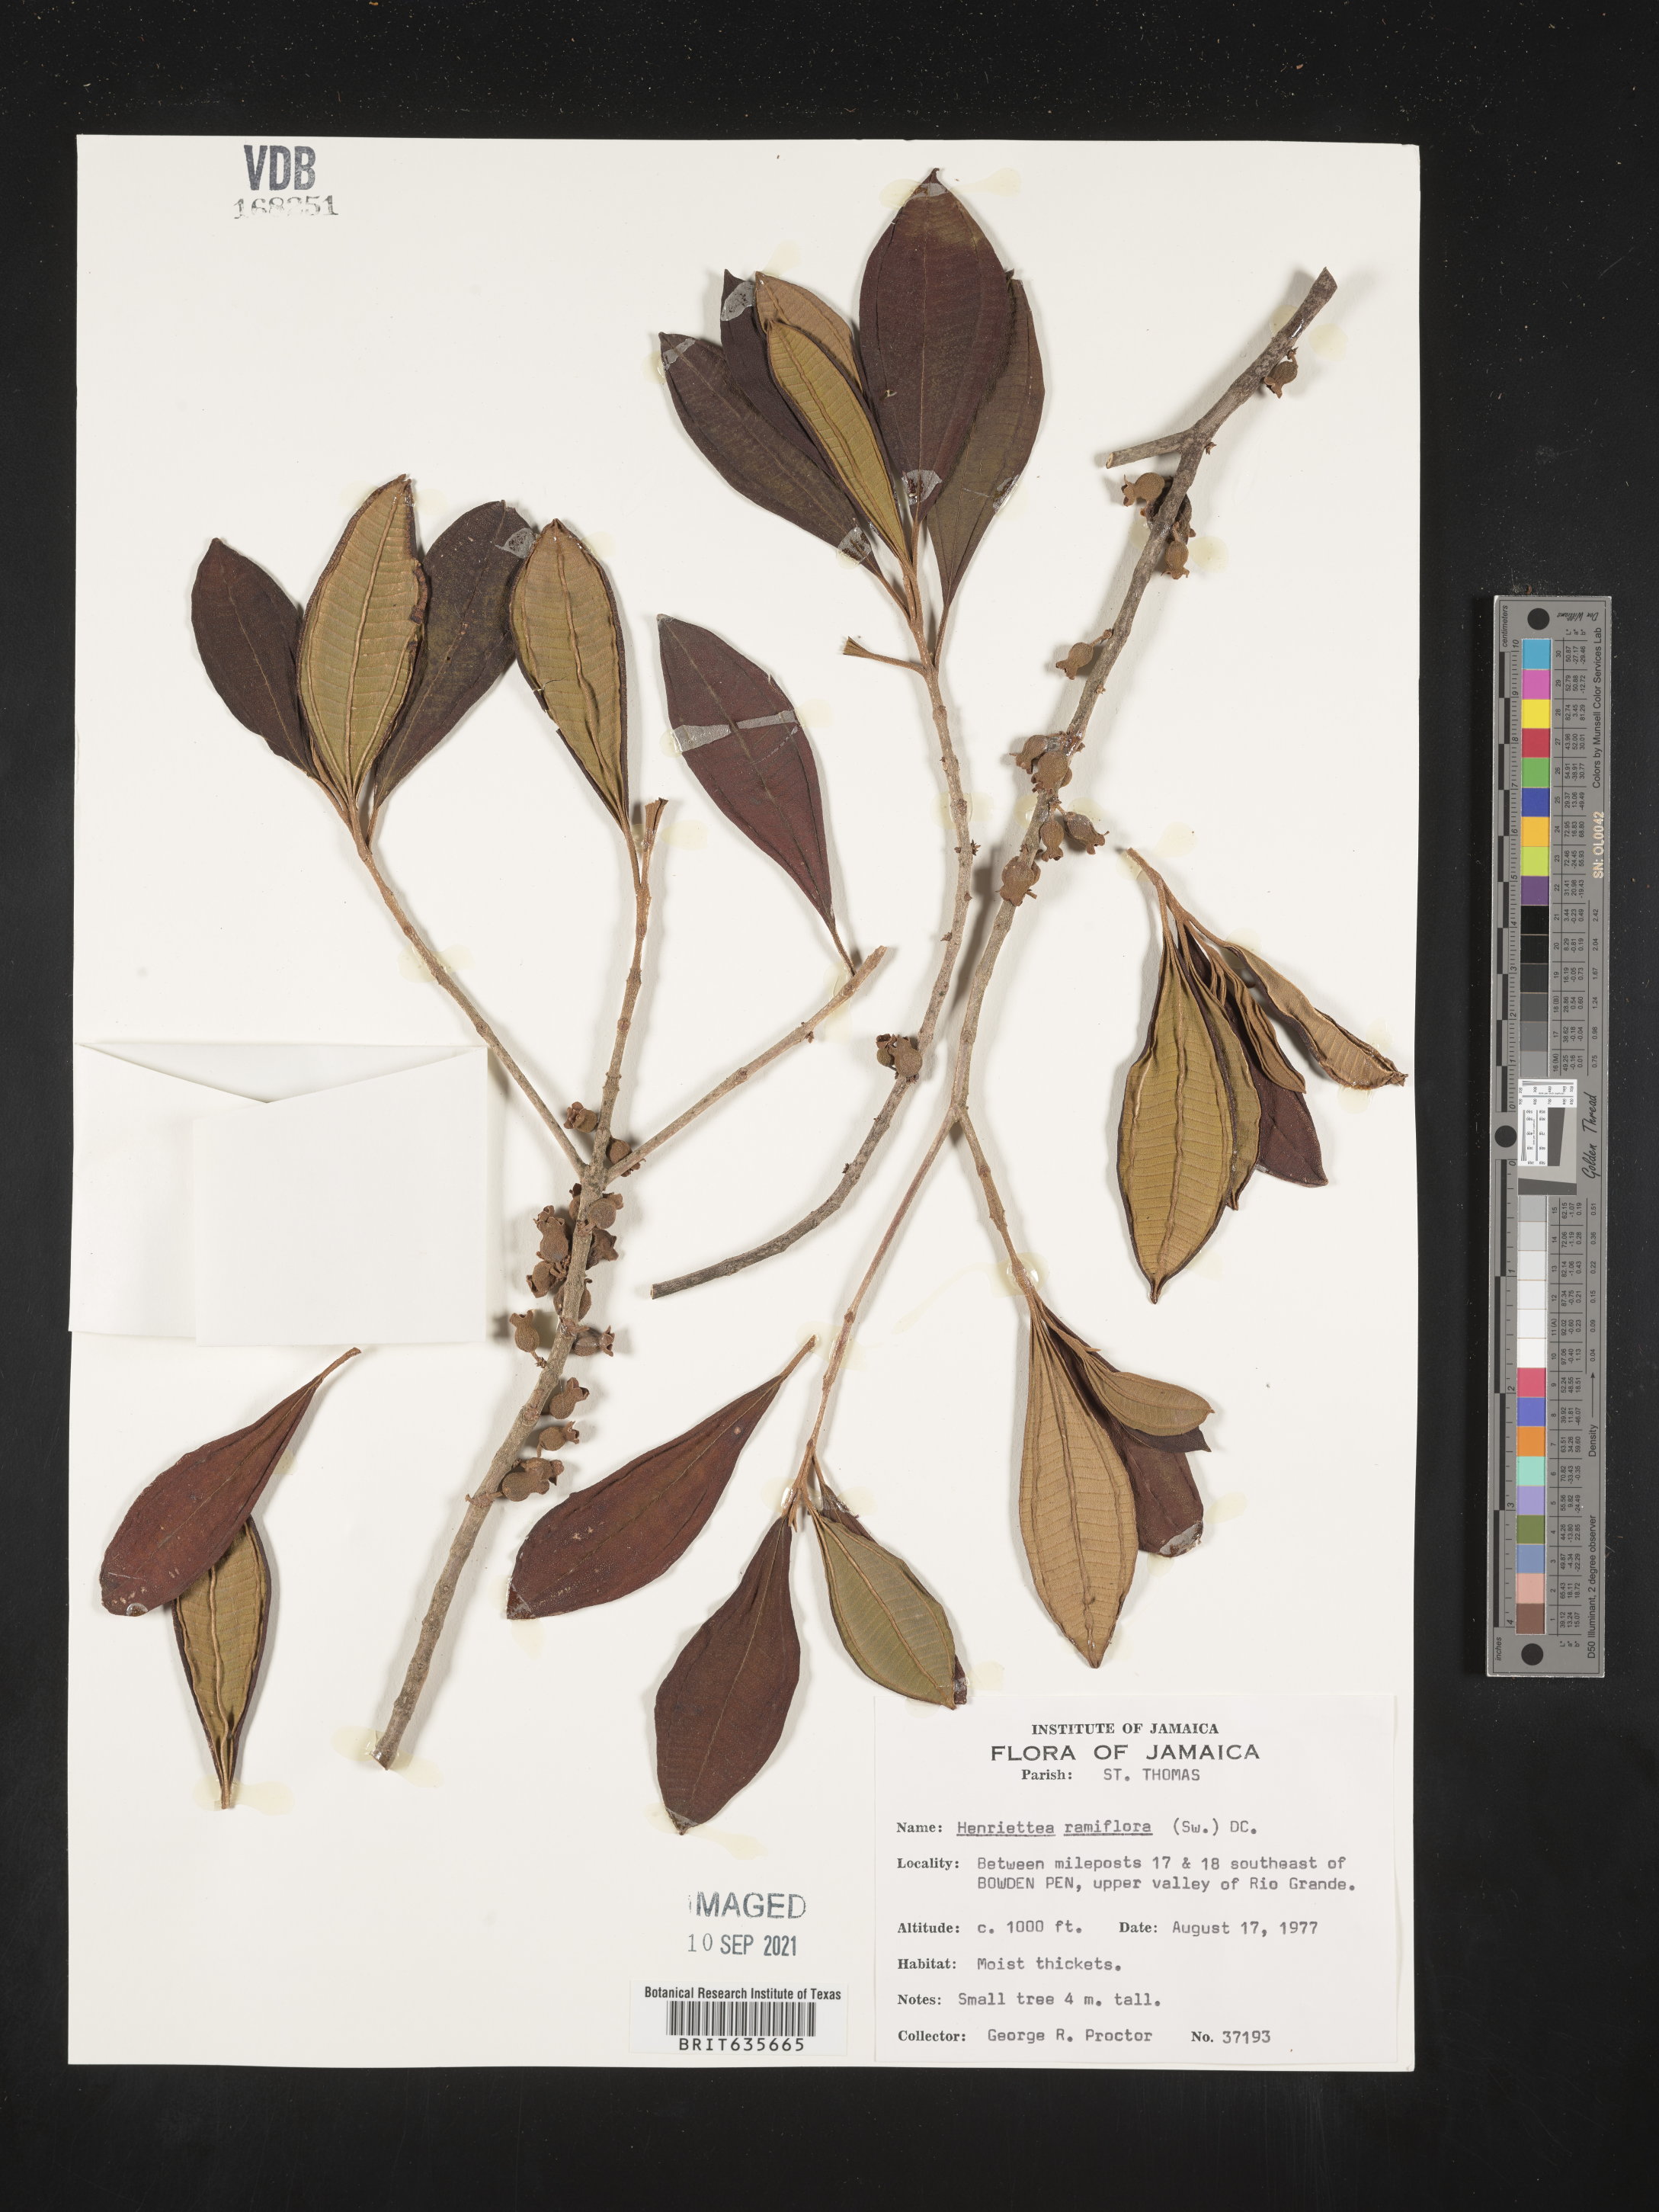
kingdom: Plantae
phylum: Tracheophyta
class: Magnoliopsida
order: Myrtales
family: Melastomataceae
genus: Henriettea
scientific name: Henriettea
